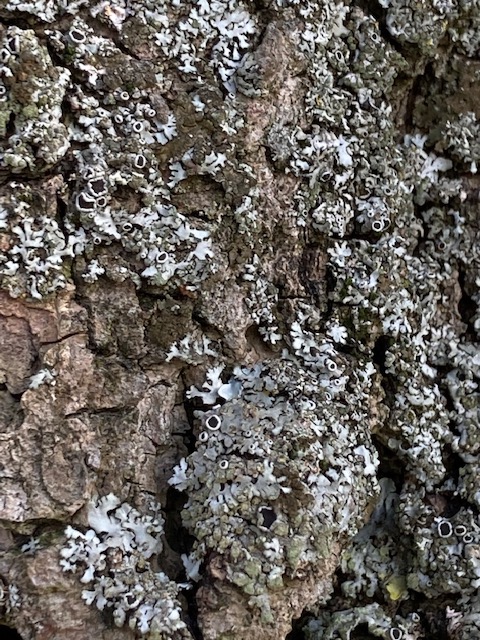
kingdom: Fungi
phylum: Ascomycota
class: Lecanoromycetes
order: Caliciales
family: Physciaceae
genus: Phaeophyscia
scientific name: Phaeophyscia orbicularis
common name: grågrøn rosetlav
